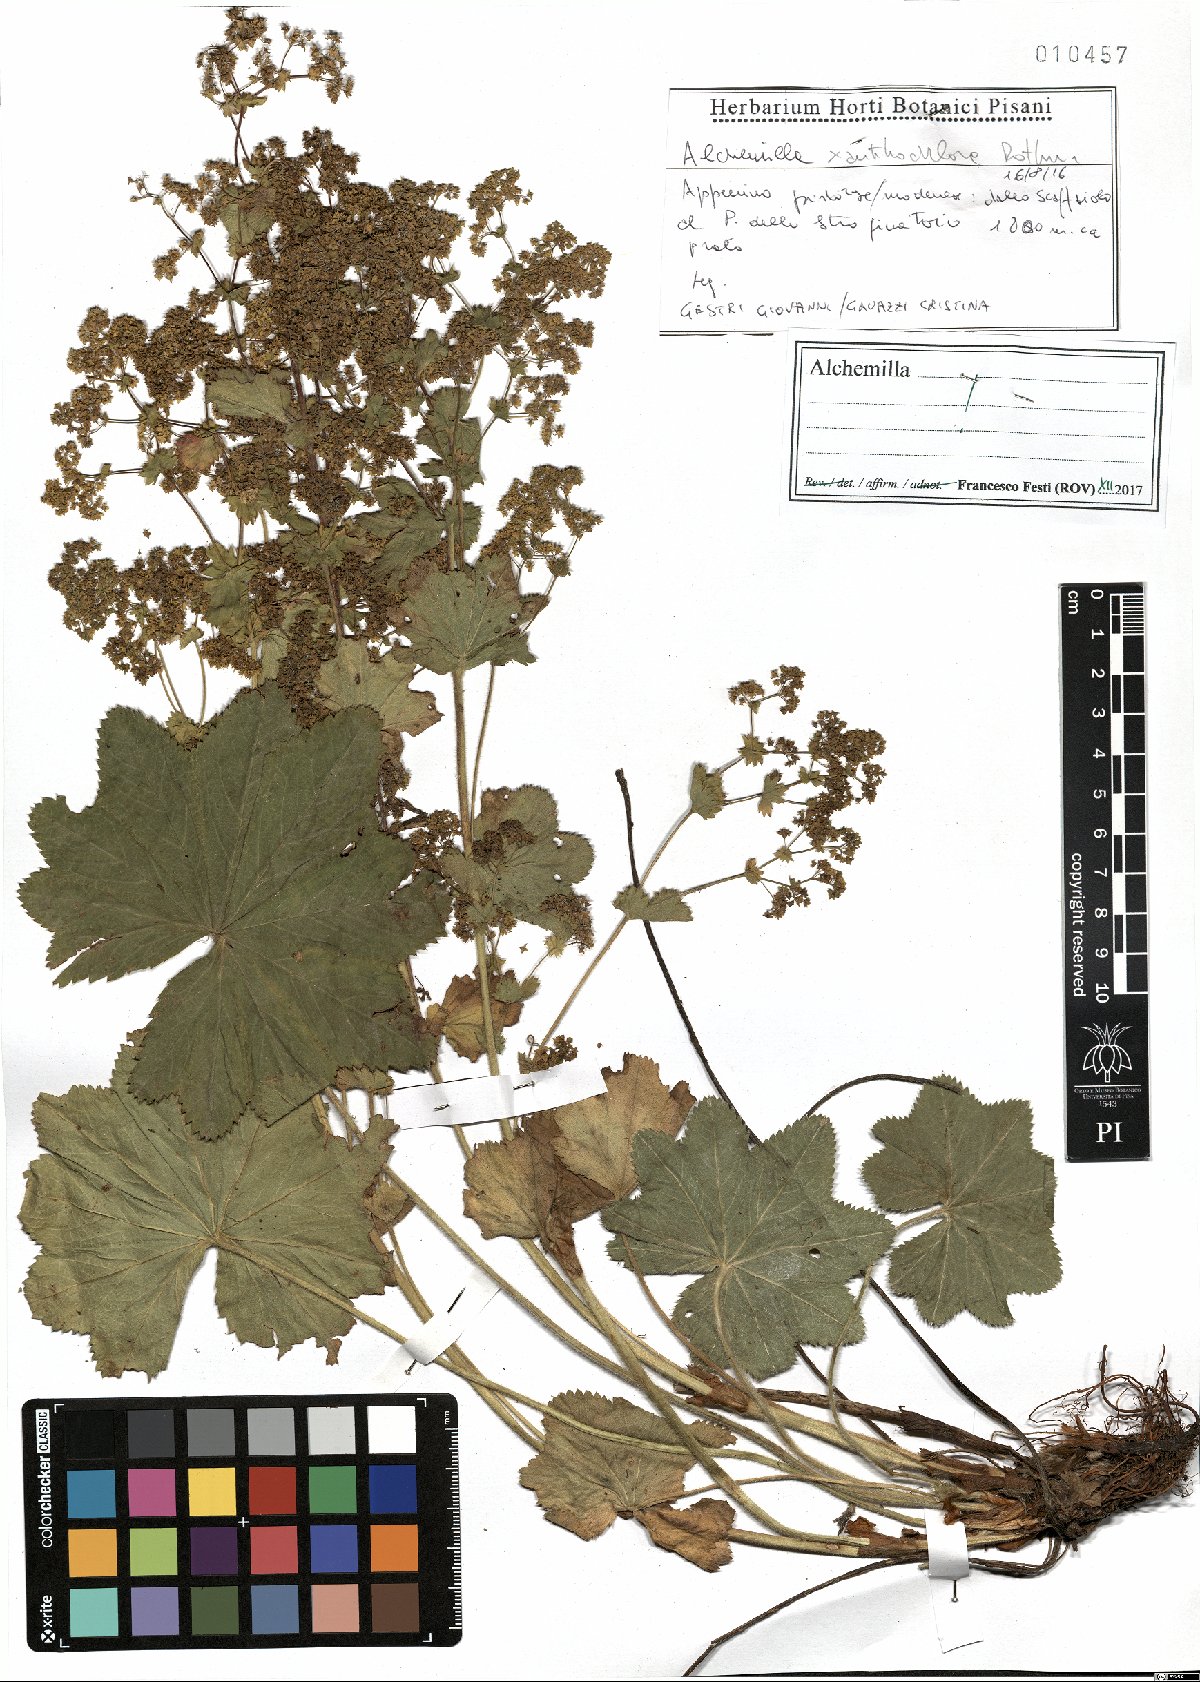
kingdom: Plantae
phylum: Tracheophyta
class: Magnoliopsida
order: Rosales
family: Rosaceae
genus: Alchemilla
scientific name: Alchemilla xanthochlora
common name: Intermediate lady's-mantle
